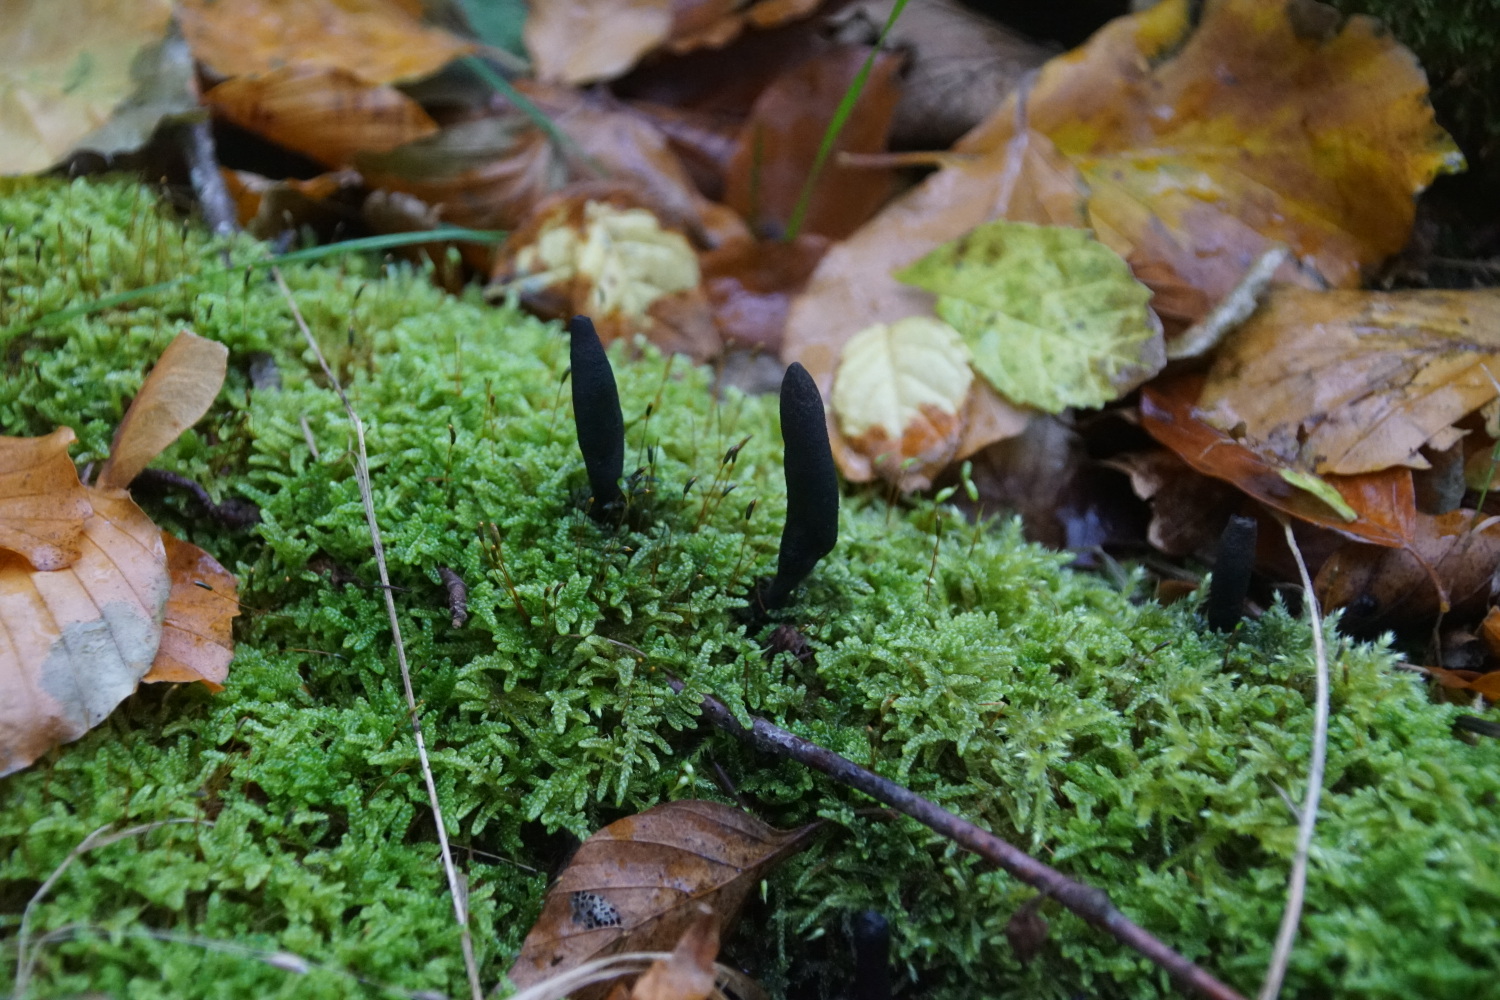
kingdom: Fungi
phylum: Ascomycota
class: Sordariomycetes
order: Xylariales
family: Xylariaceae
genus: Xylaria
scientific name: Xylaria longipes
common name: slank stødsvamp
